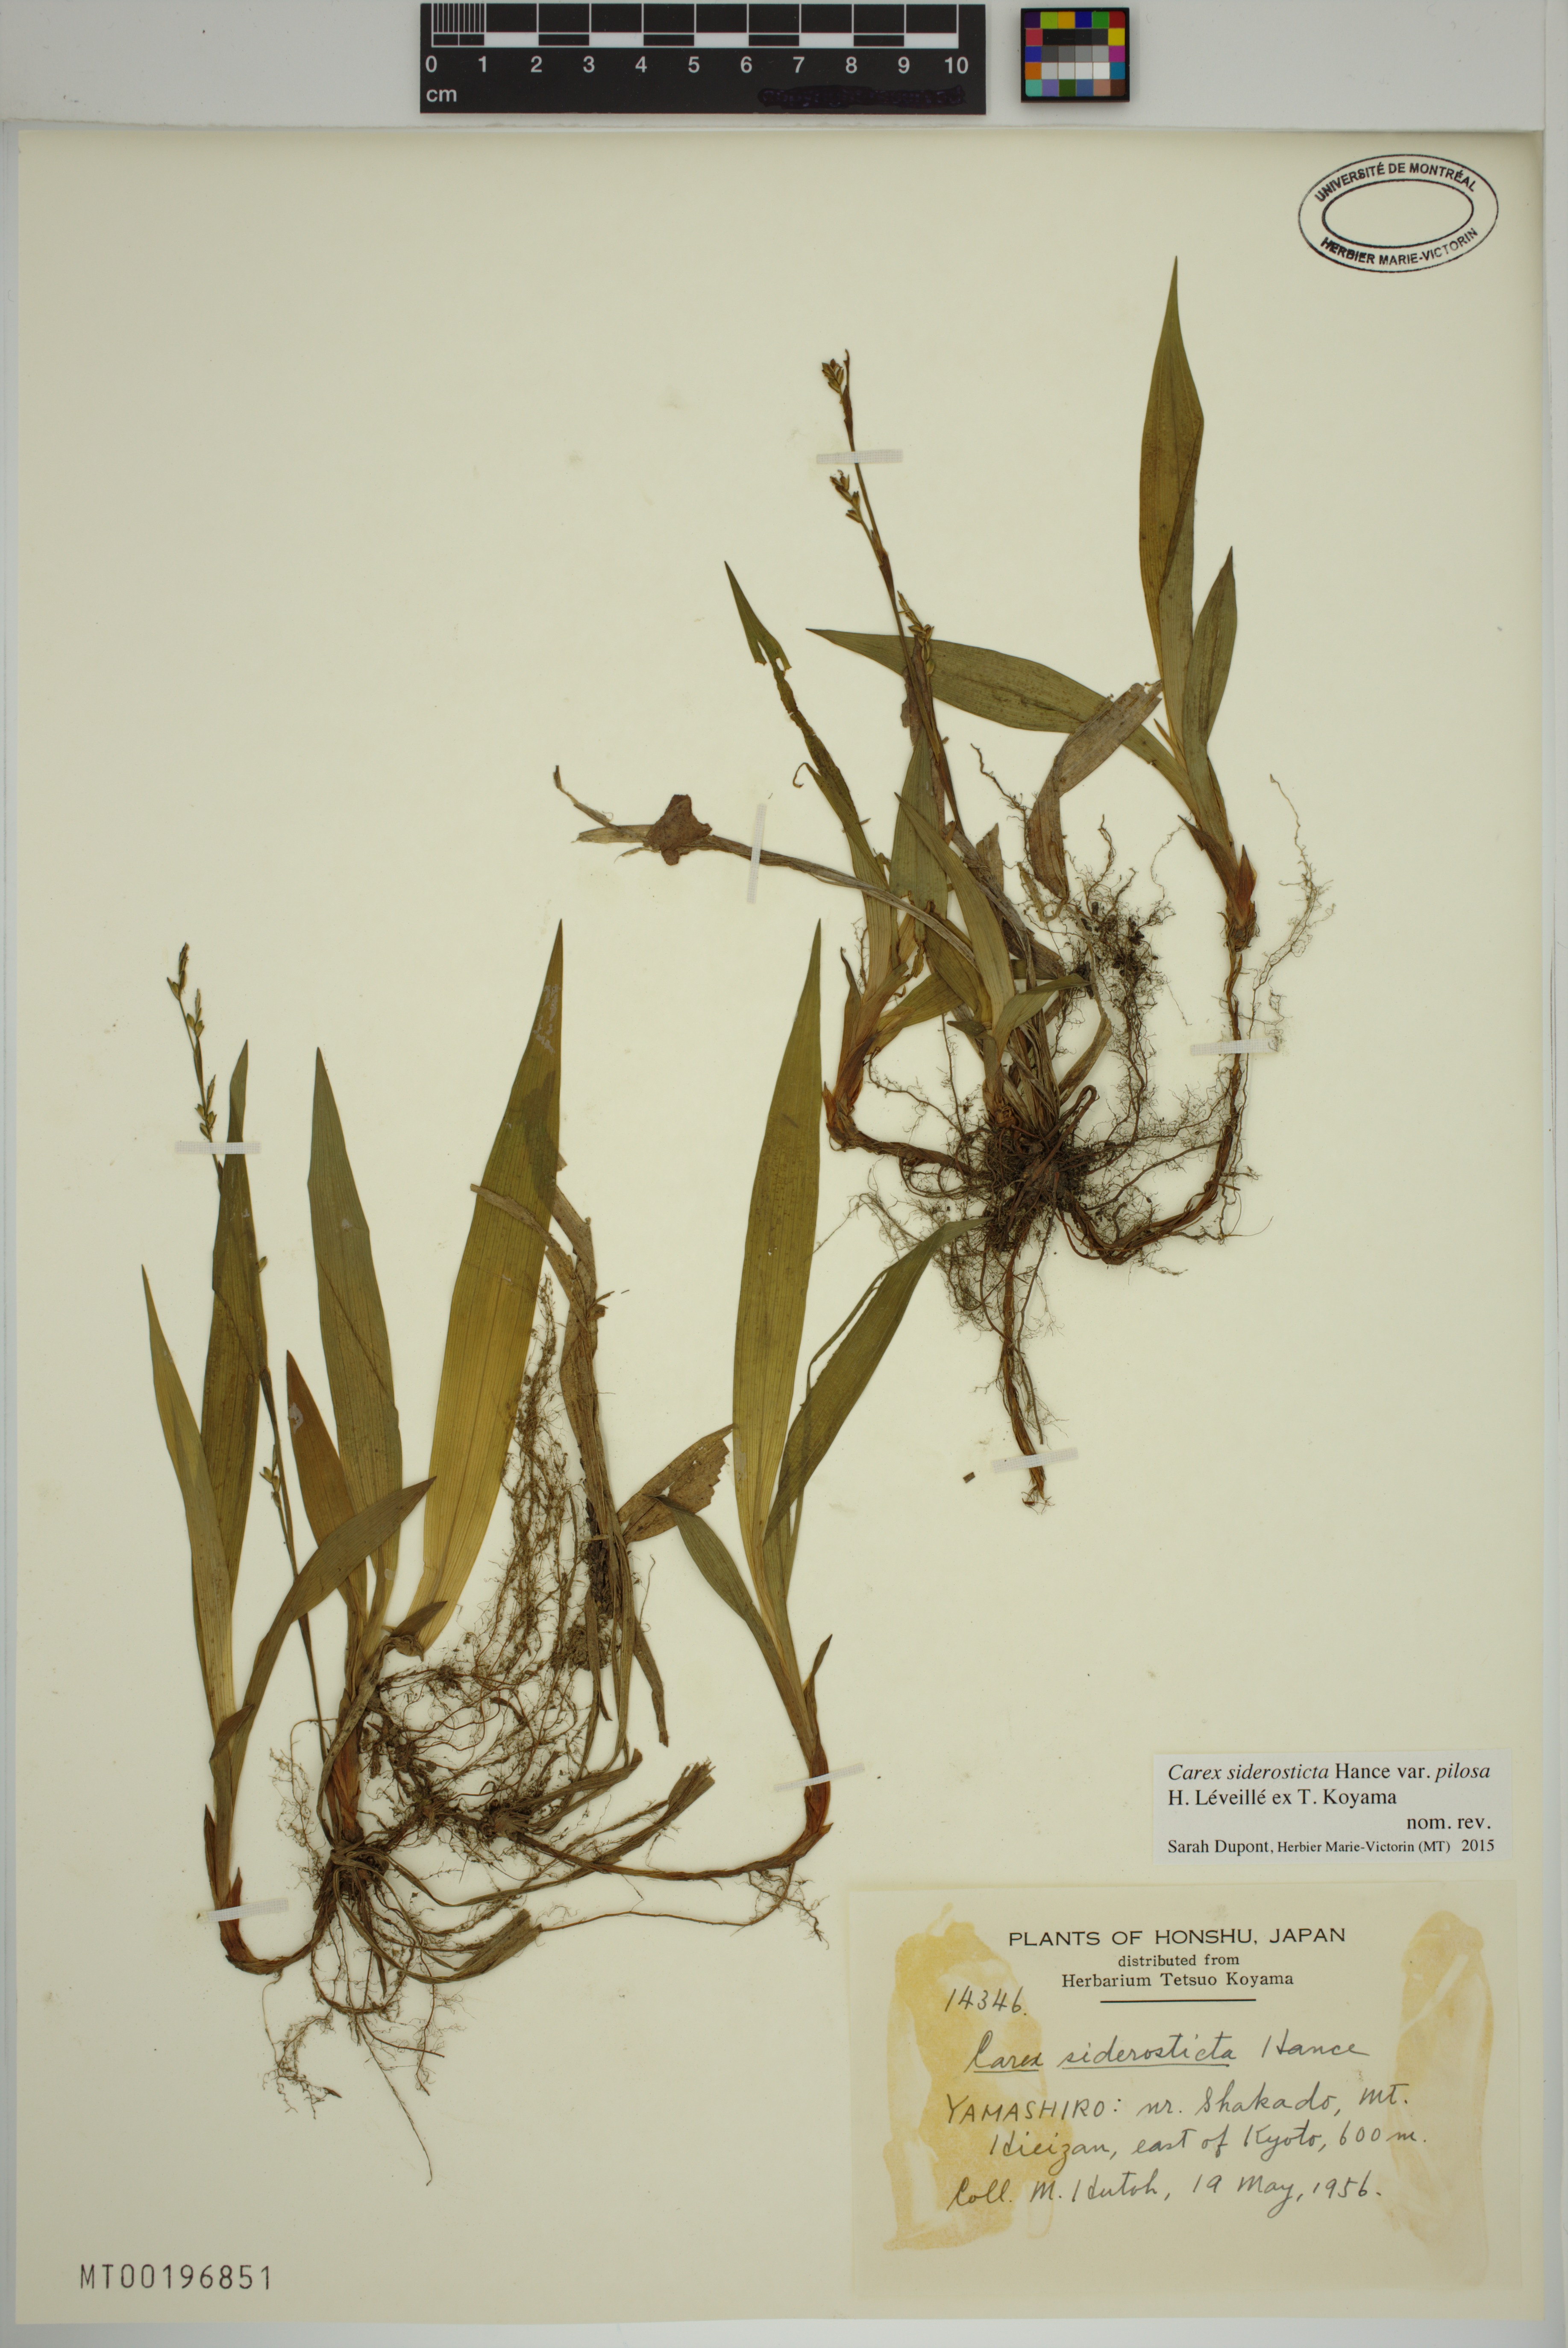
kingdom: Plantae
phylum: Tracheophyta
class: Liliopsida
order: Poales
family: Cyperaceae
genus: Carex
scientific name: Carex siderosticta
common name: Broadleaf sedge
